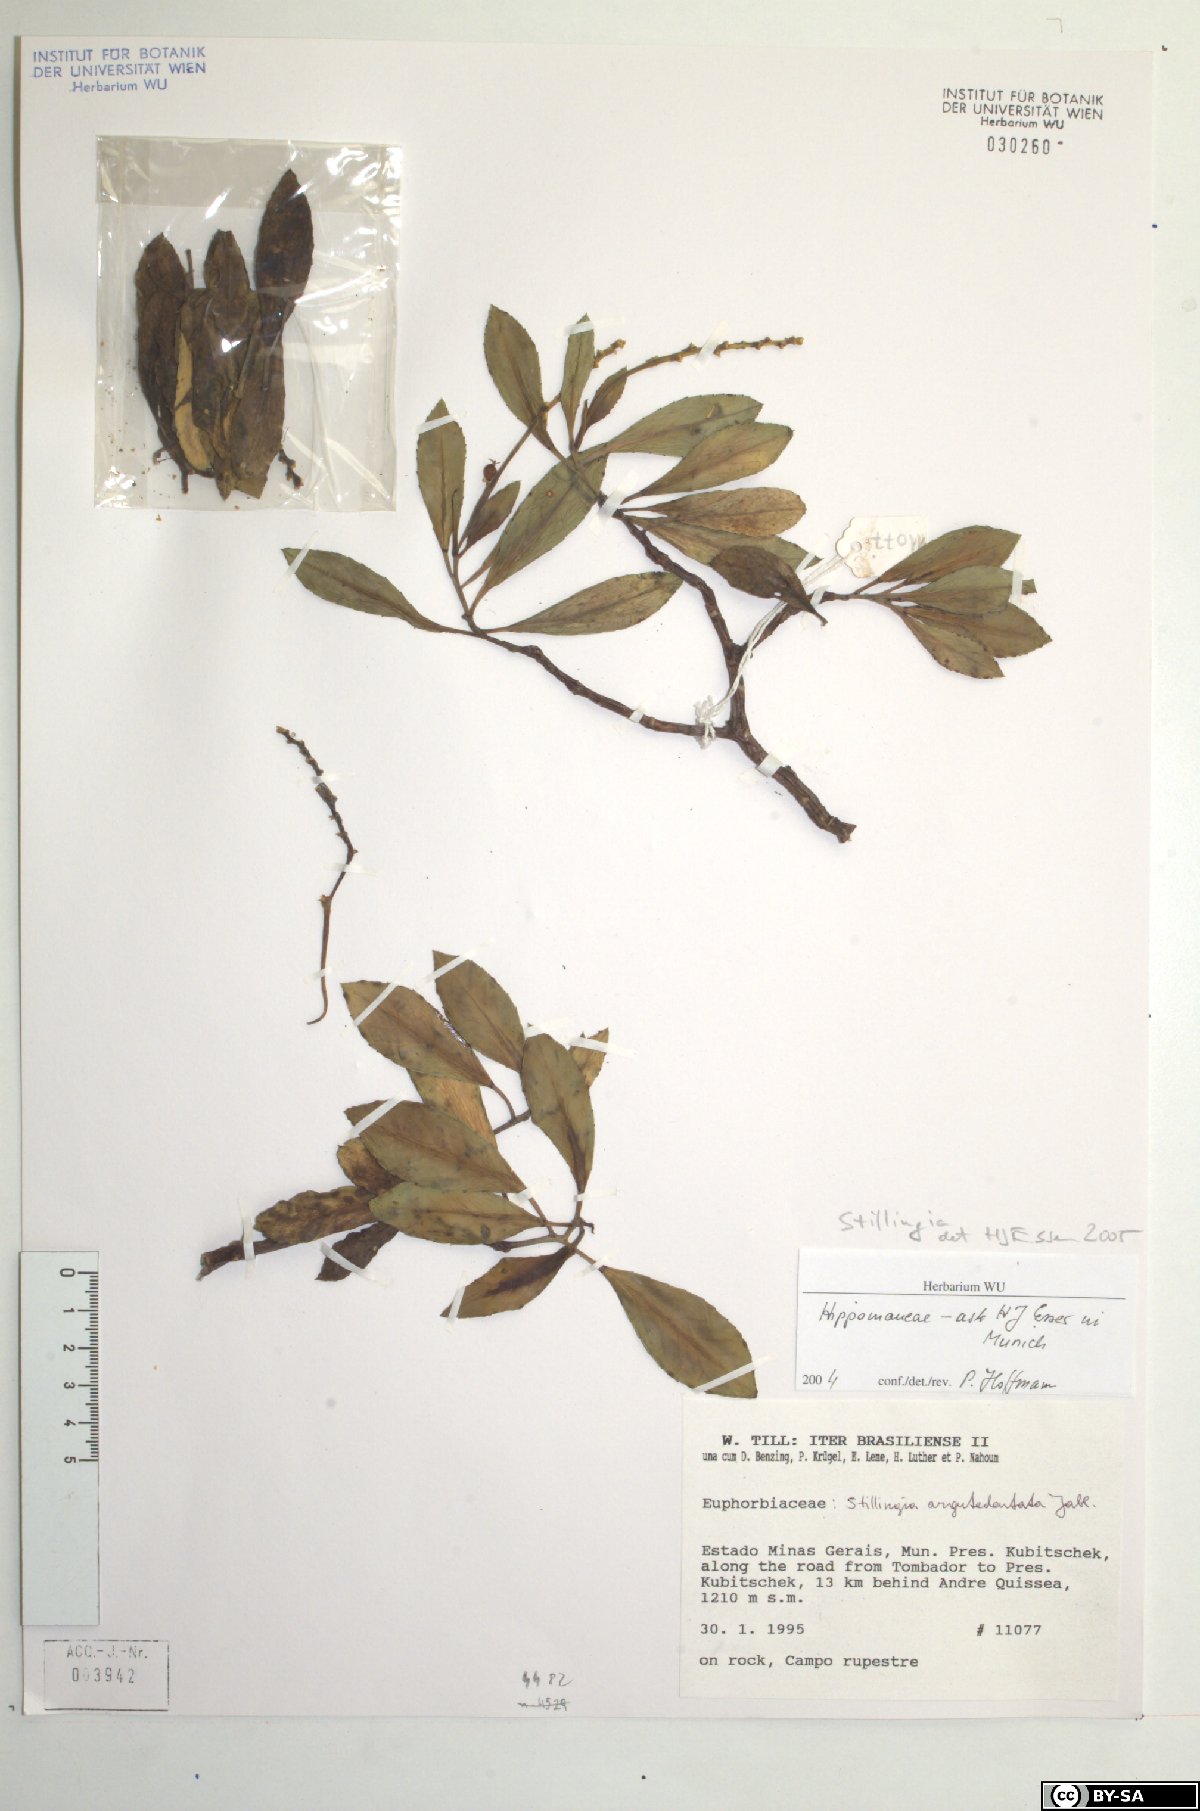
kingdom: Plantae
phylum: Tracheophyta
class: Magnoliopsida
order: Malpighiales
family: Euphorbiaceae
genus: Stillingia
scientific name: Stillingia argutedentata
